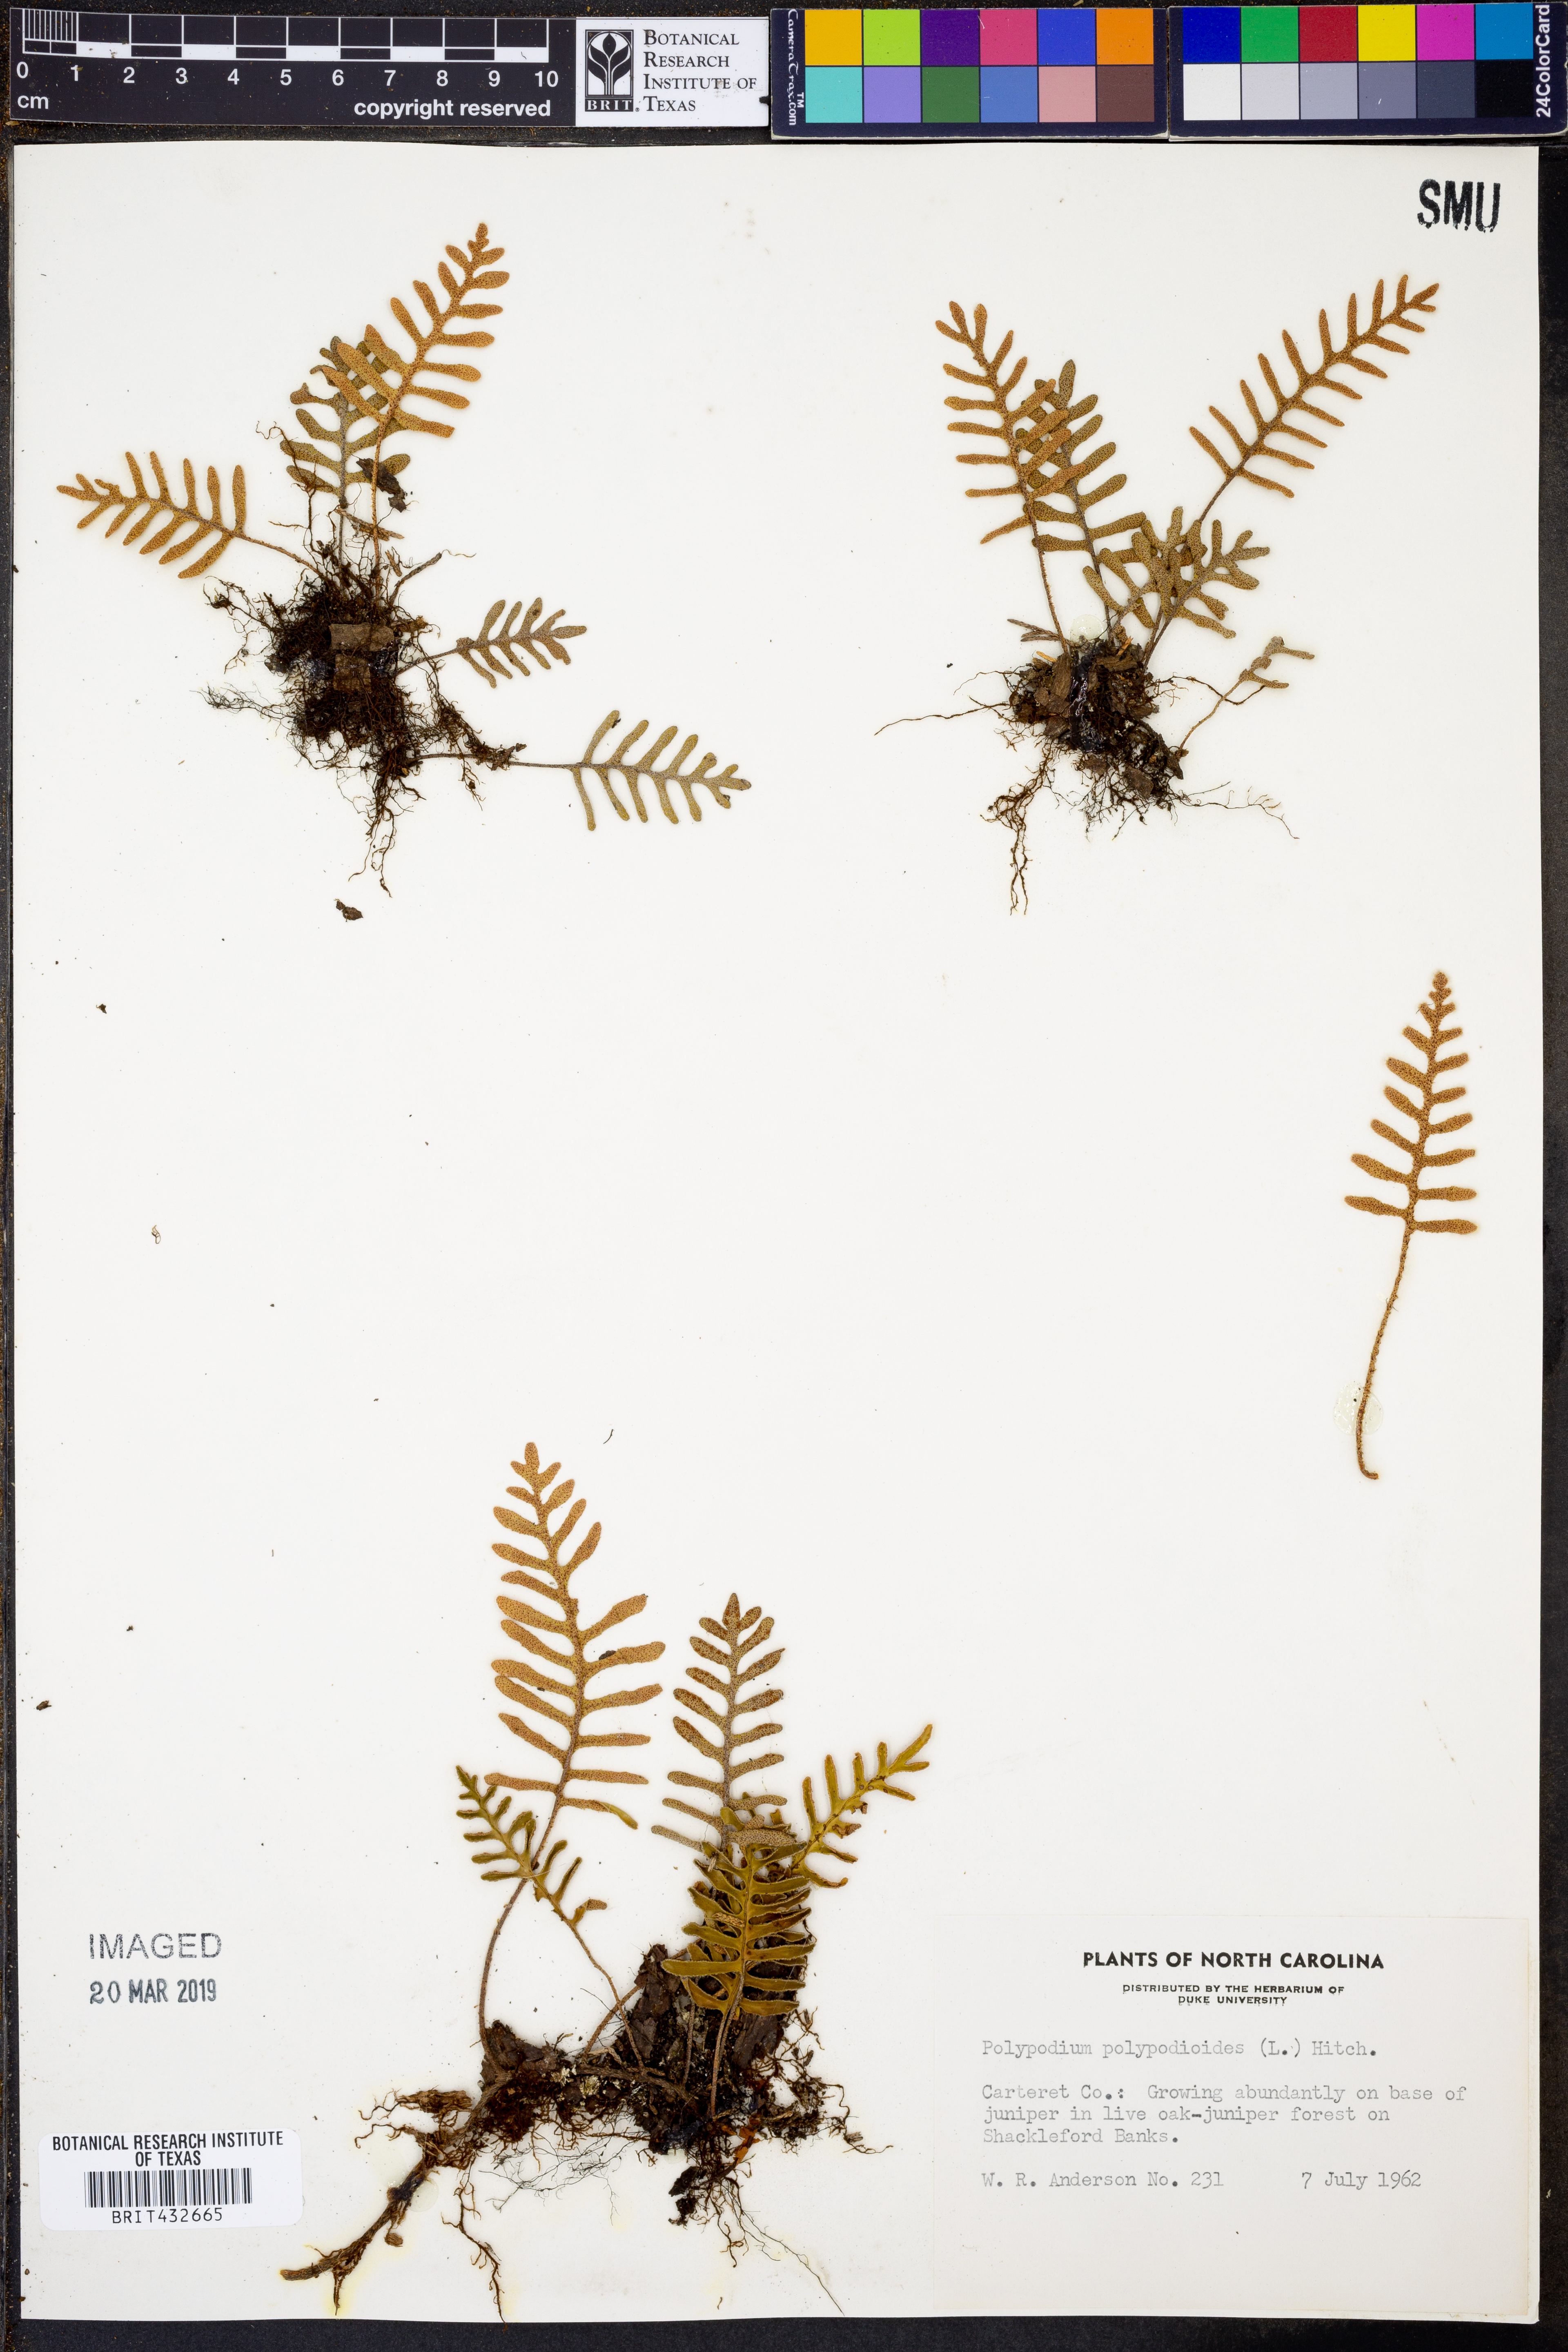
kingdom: Plantae
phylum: Tracheophyta
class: Polypodiopsida
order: Polypodiales
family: Polypodiaceae
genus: Pleopeltis
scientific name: Pleopeltis polypodioides
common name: Resurrection fern
